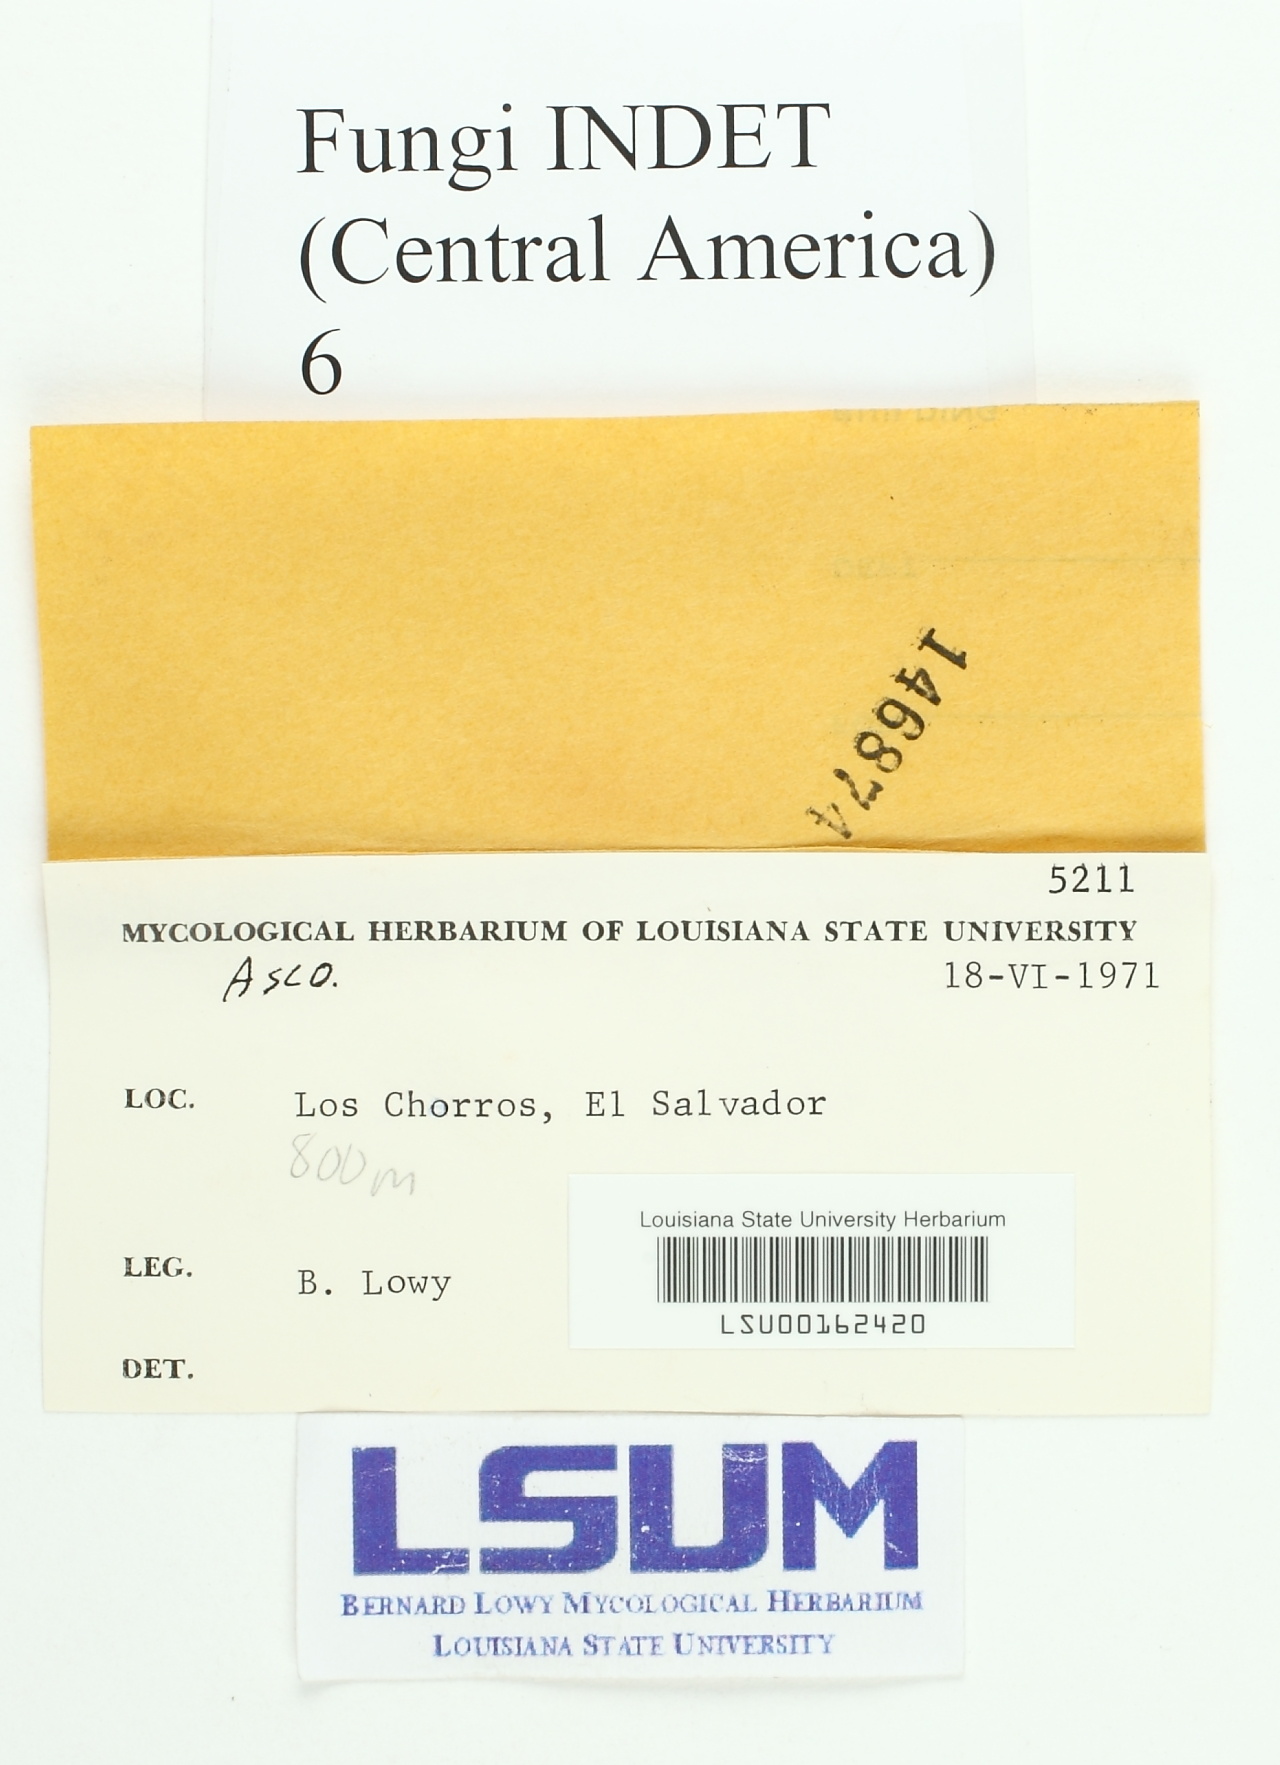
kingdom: Fungi
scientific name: Fungi
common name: Fungi
